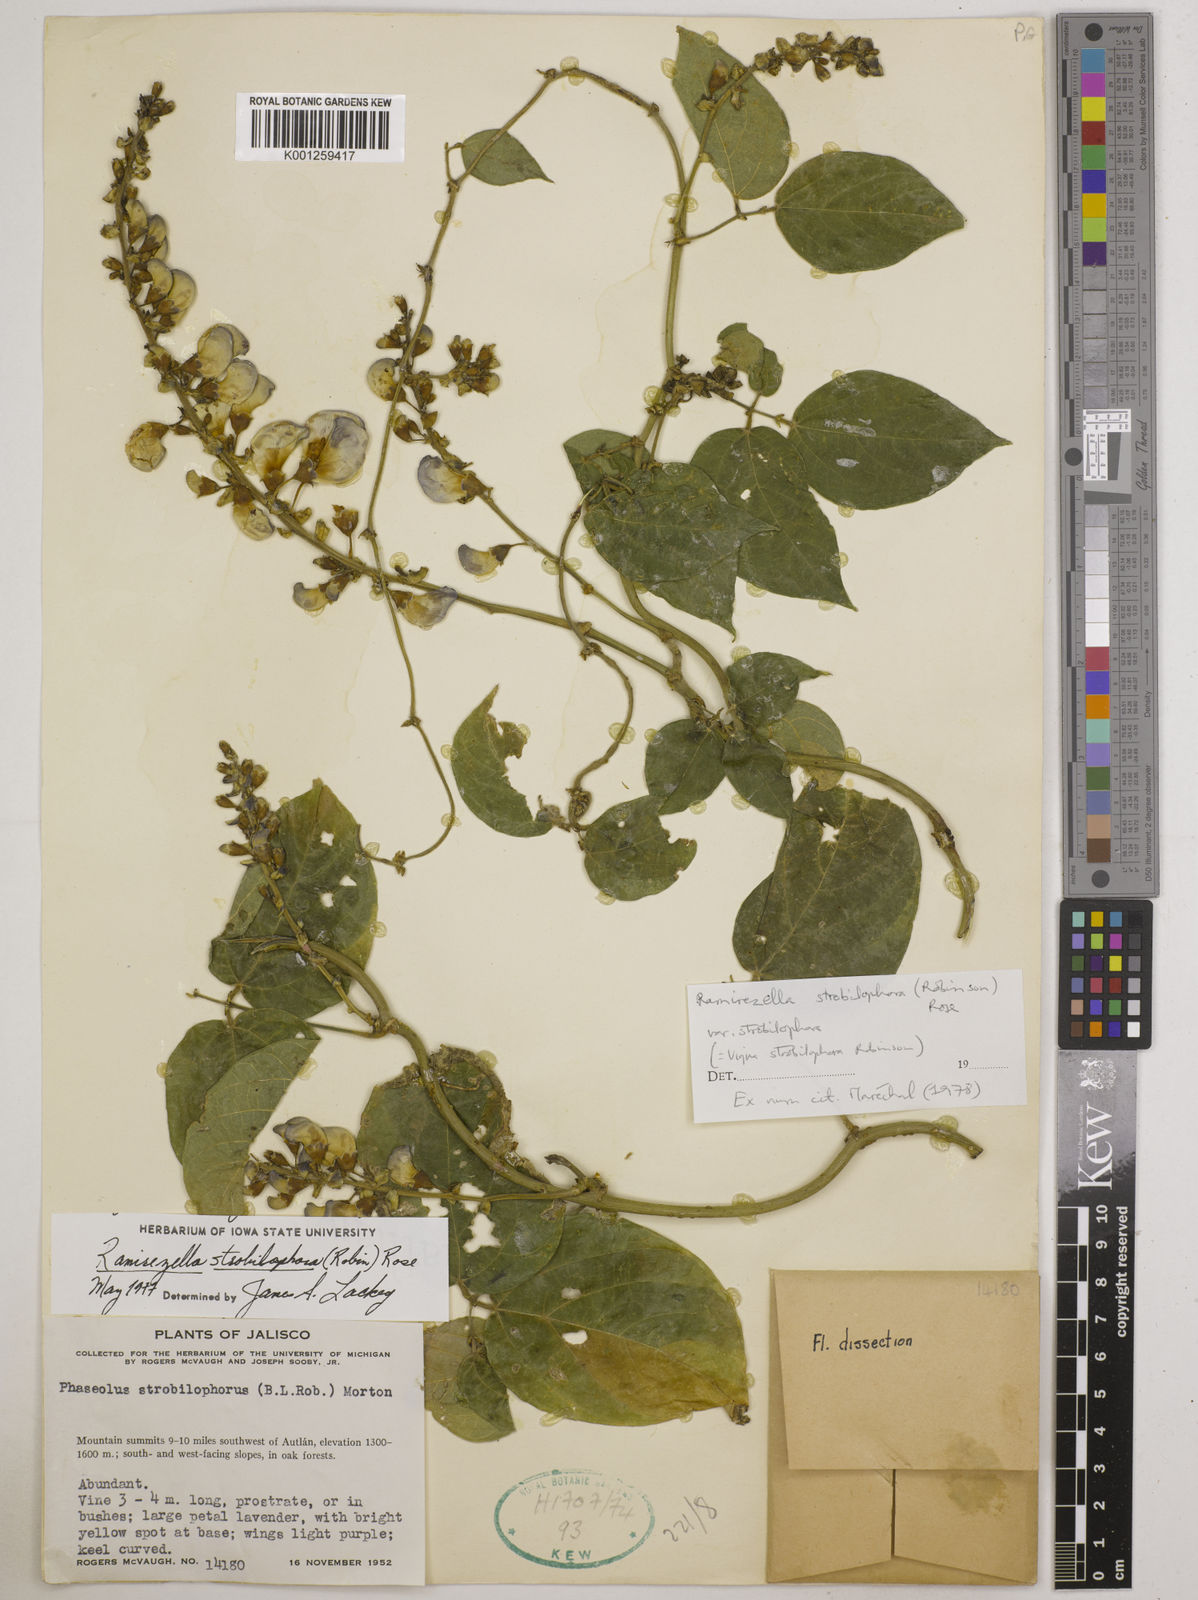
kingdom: Plantae
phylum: Tracheophyta
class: Magnoliopsida
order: Fabales
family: Fabaceae
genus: Ramirezella
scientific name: Ramirezella strobilophora
